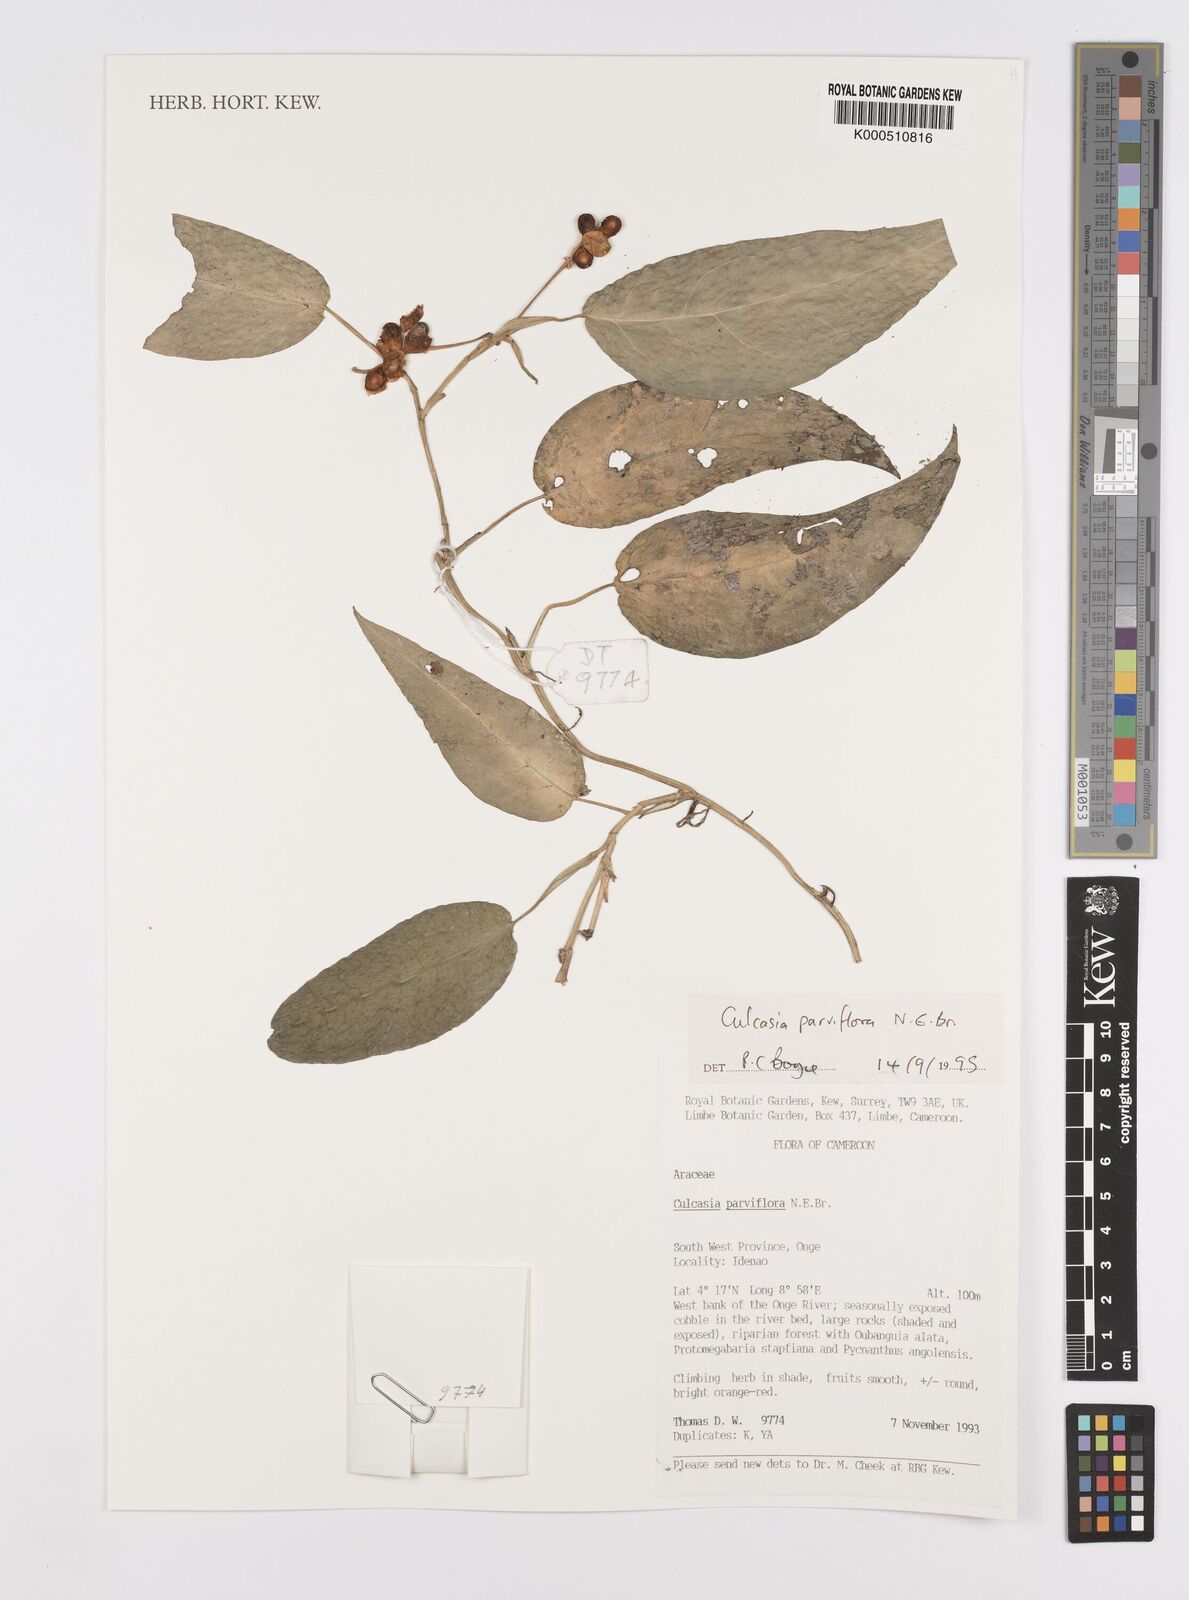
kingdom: Plantae
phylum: Tracheophyta
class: Liliopsida
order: Alismatales
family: Araceae
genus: Culcasia
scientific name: Culcasia parviflora
